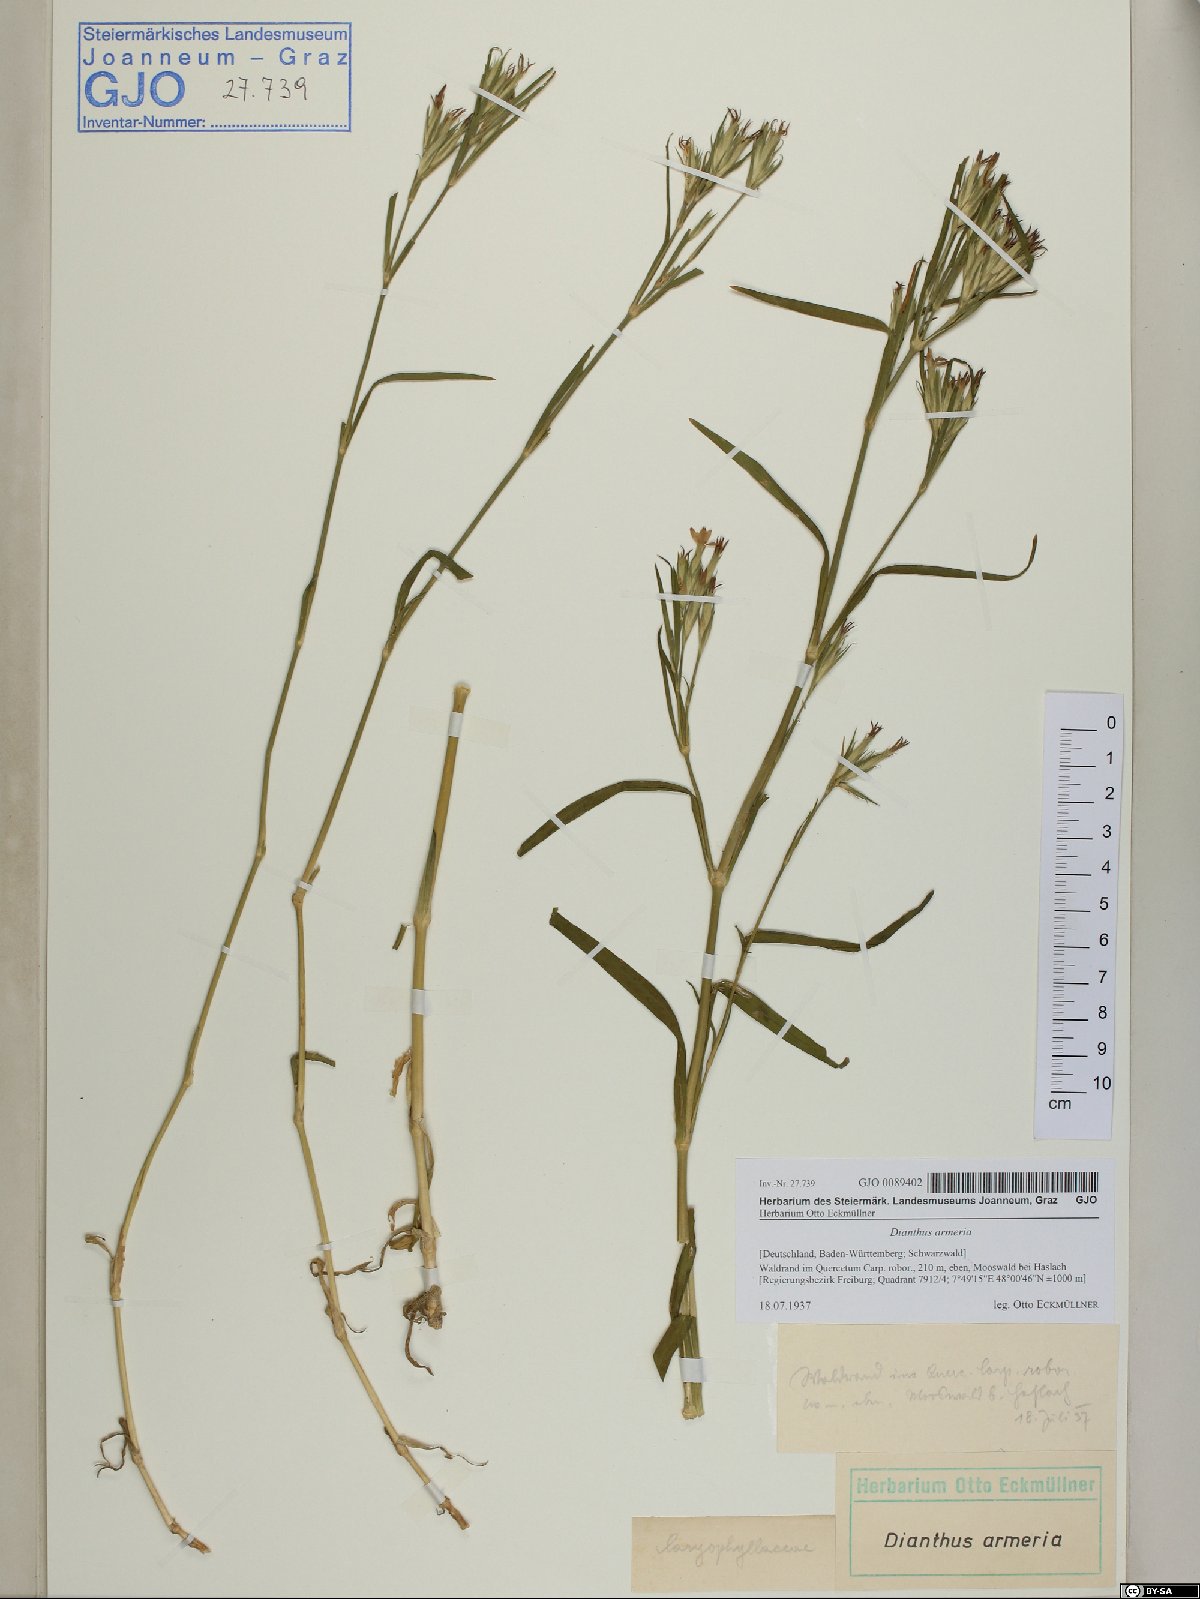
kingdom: Plantae
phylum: Tracheophyta
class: Magnoliopsida
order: Caryophyllales
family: Caryophyllaceae
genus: Dianthus
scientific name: Dianthus armeria
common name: Deptford pink
